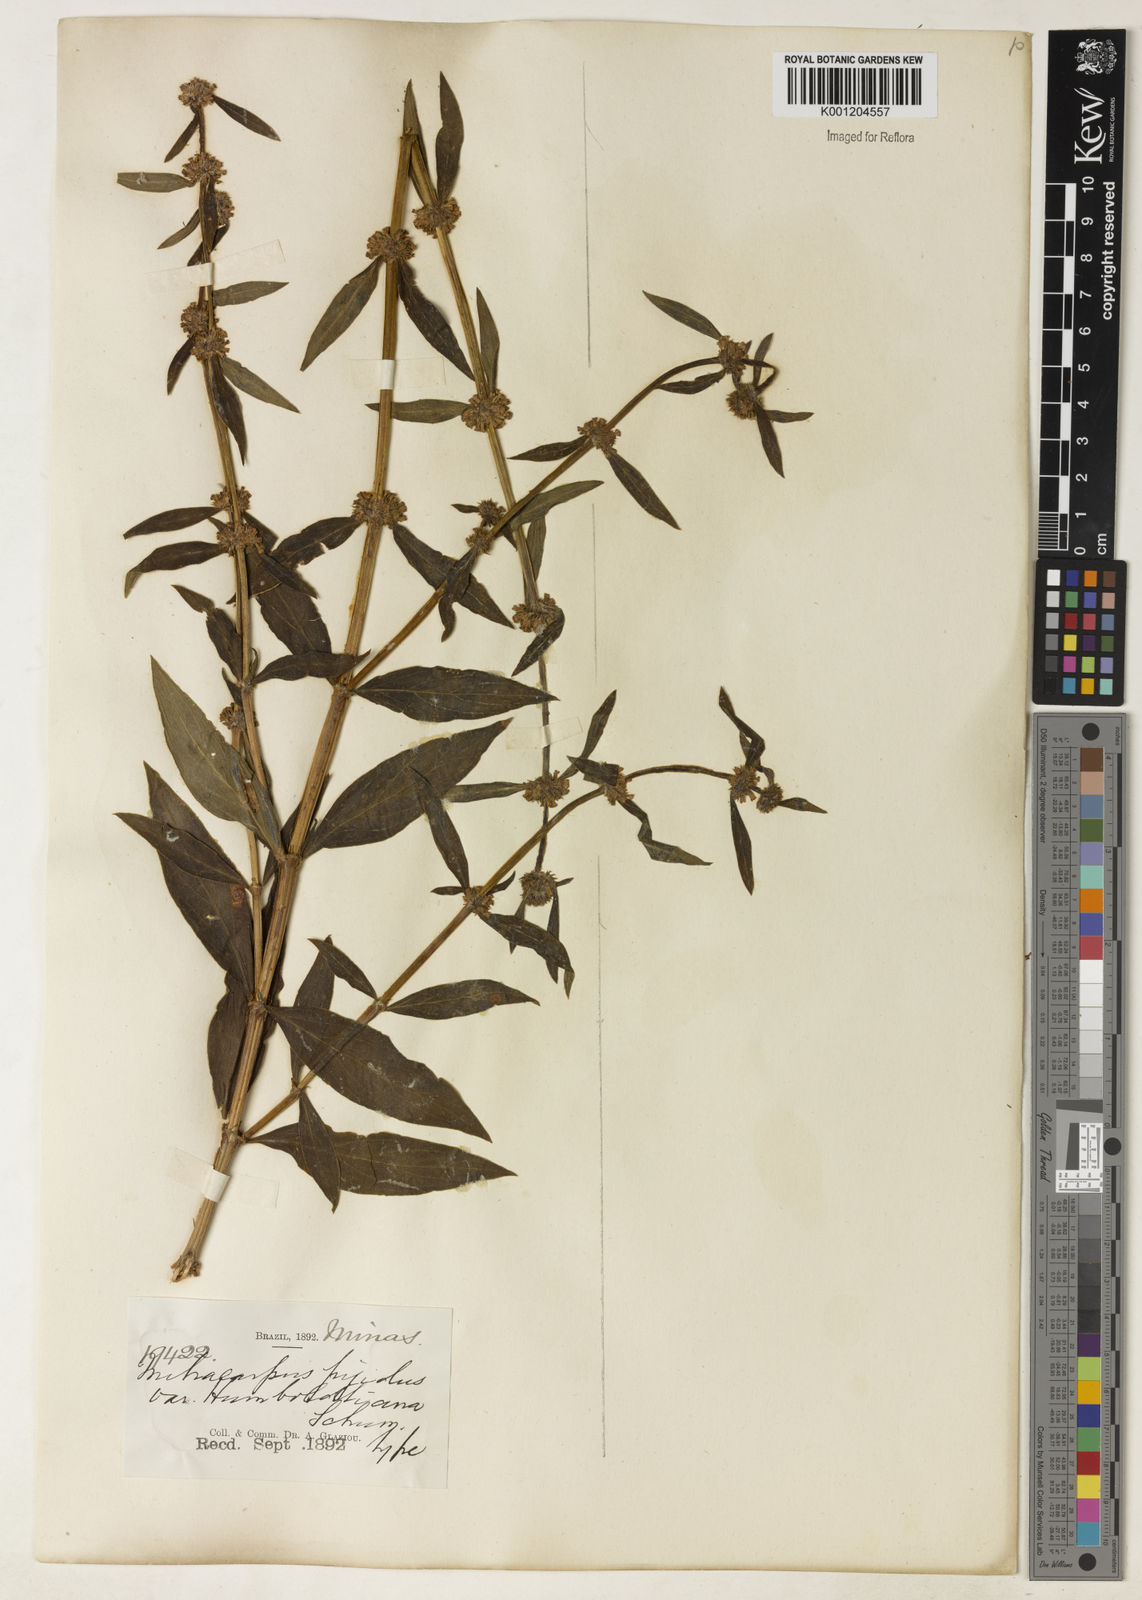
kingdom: Plantae
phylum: Tracheophyta
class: Magnoliopsida
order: Gentianales
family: Rubiaceae
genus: Mitracarpus
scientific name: Mitracarpus
